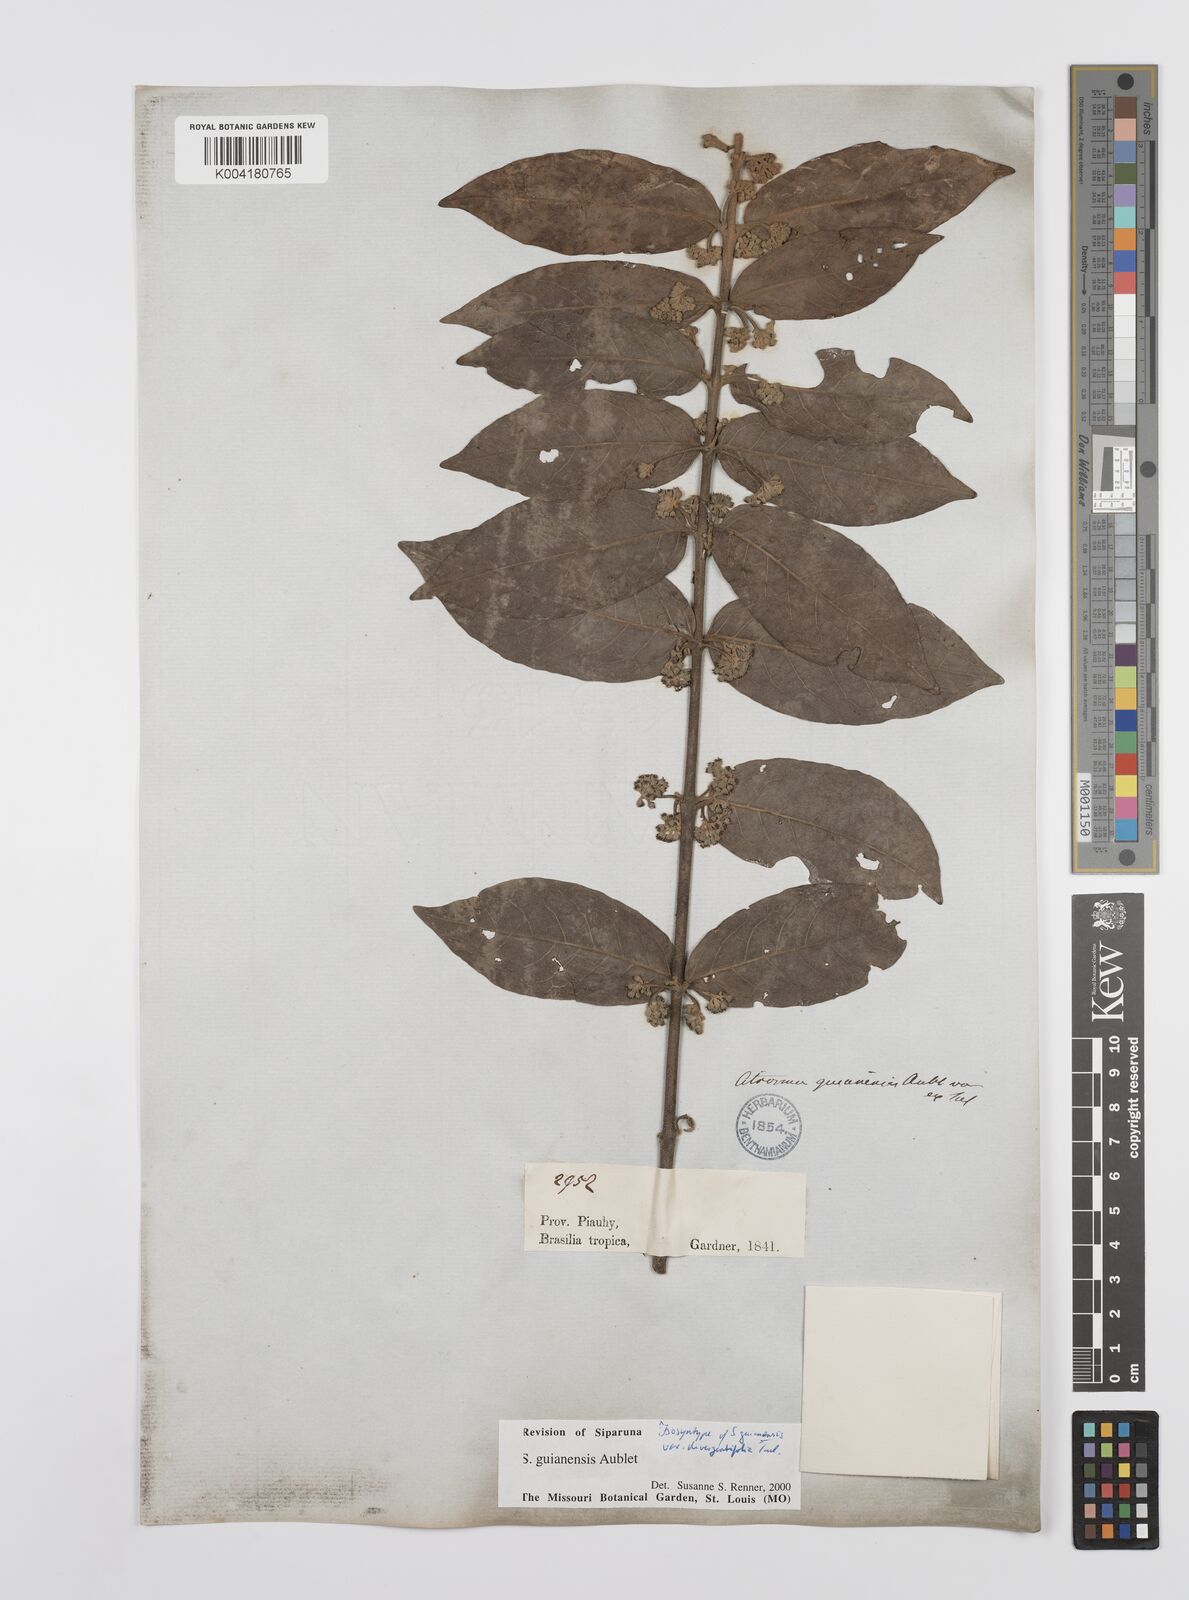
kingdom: Plantae
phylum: Tracheophyta
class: Magnoliopsida
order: Laurales
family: Siparunaceae
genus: Siparuna
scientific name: Siparuna guianensis
